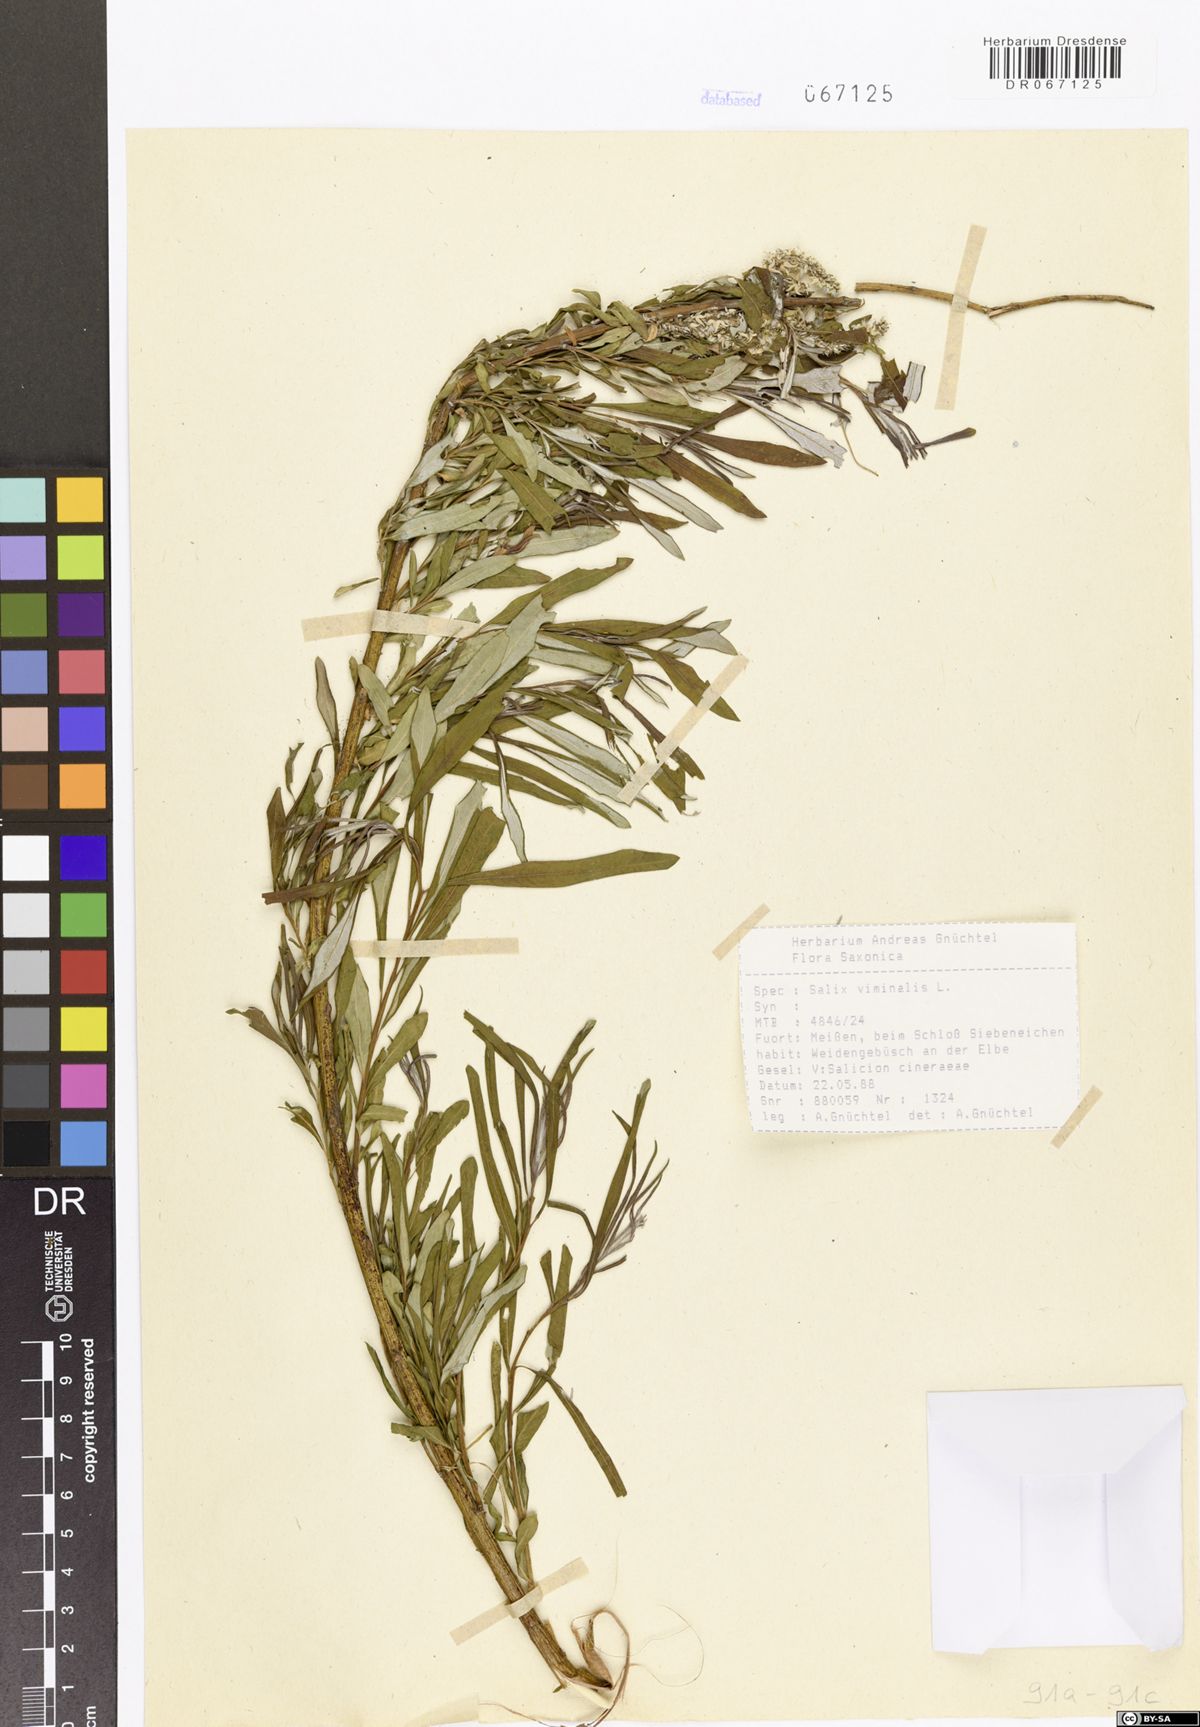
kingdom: Plantae
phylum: Tracheophyta
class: Magnoliopsida
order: Malpighiales
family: Salicaceae
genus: Salix
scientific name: Salix viminalis
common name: Osier
